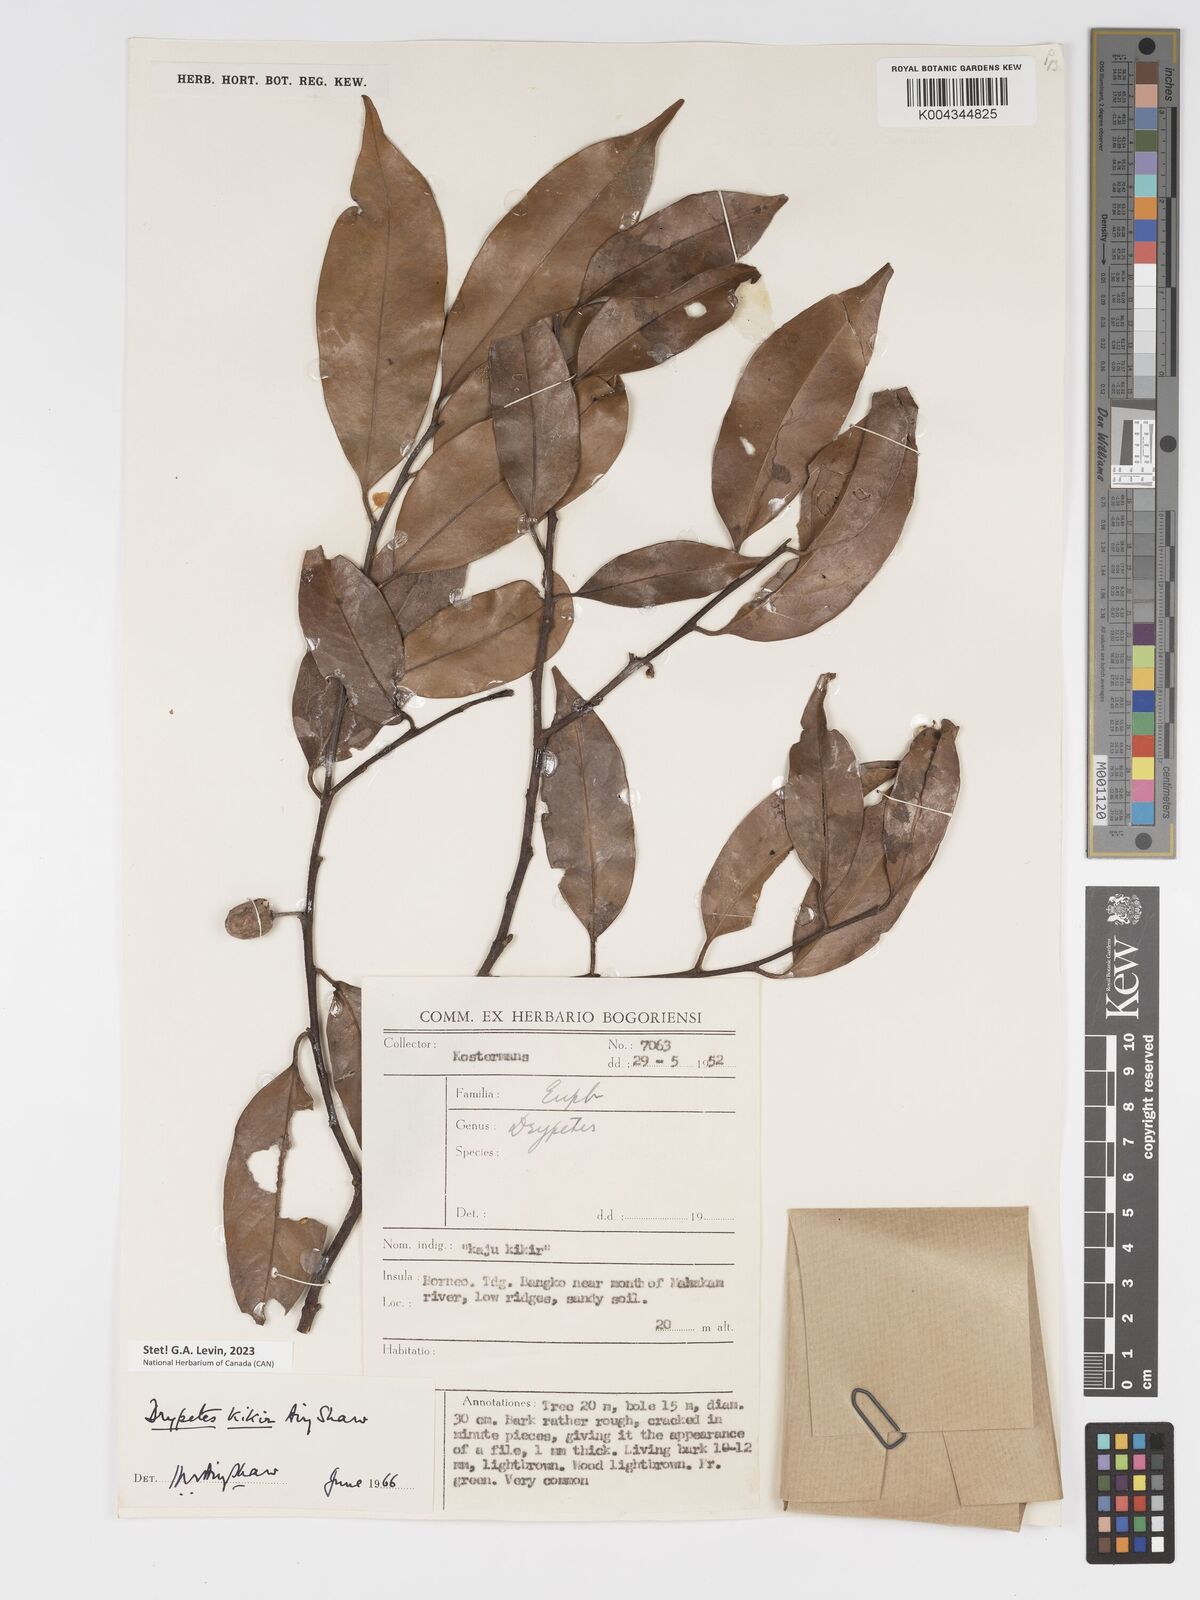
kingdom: Plantae
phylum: Tracheophyta
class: Magnoliopsida
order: Malpighiales
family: Putranjivaceae
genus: Drypetes
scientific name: Drypetes kikir
